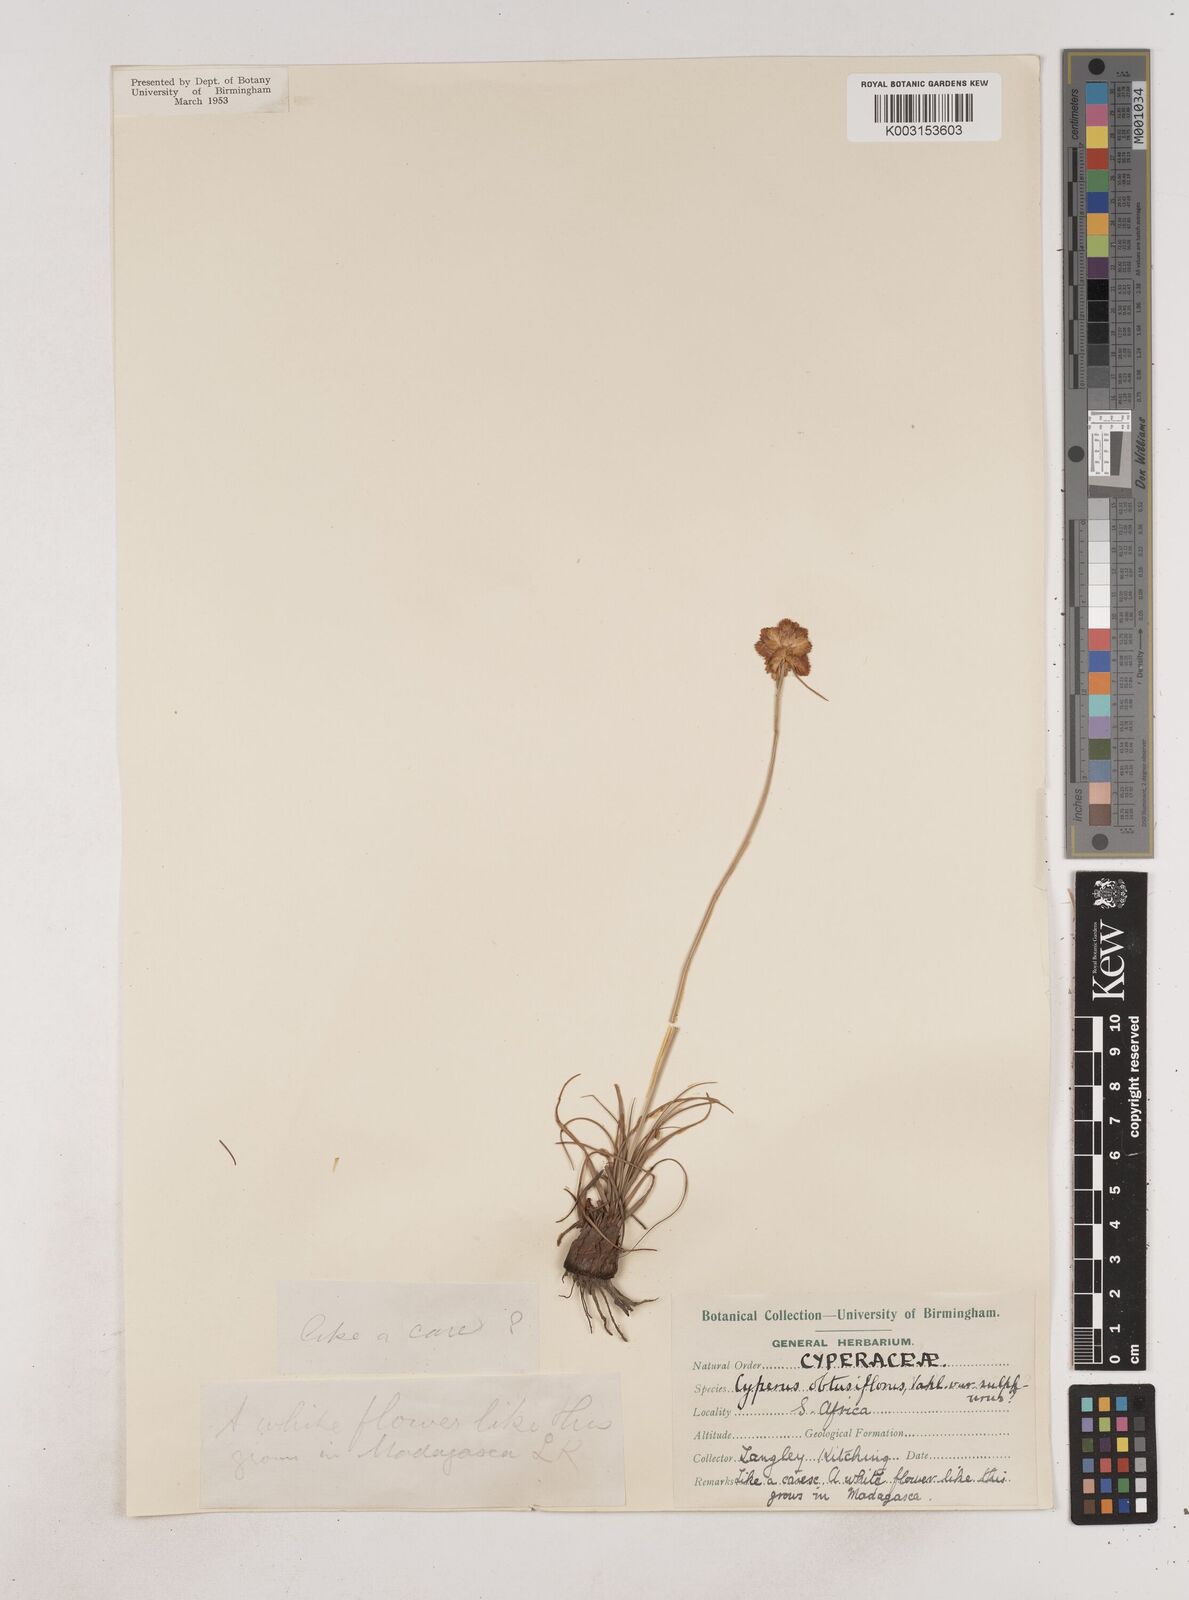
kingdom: Plantae
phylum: Tracheophyta
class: Liliopsida
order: Poales
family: Cyperaceae
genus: Cyperus
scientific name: Cyperus niveus
